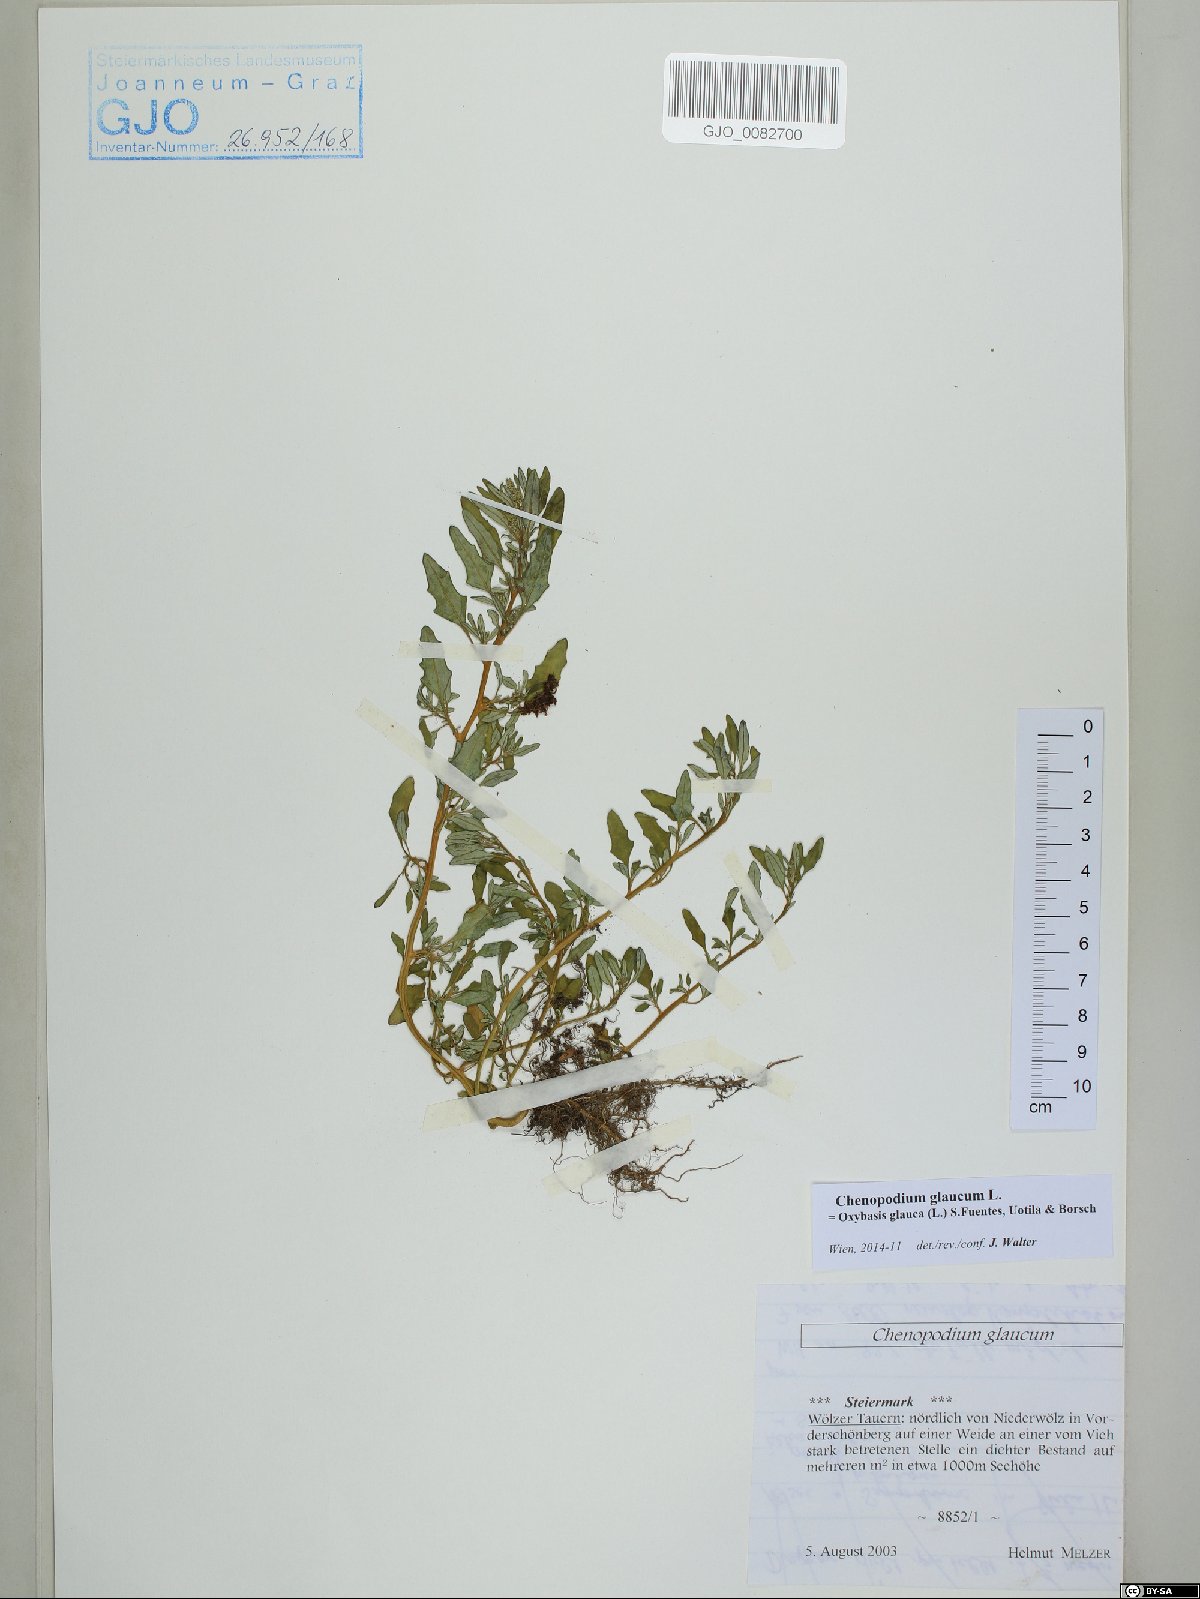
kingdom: Plantae
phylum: Tracheophyta
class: Magnoliopsida
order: Caryophyllales
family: Amaranthaceae
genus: Oxybasis
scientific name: Oxybasis glauca
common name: Glaucous goosefoot
